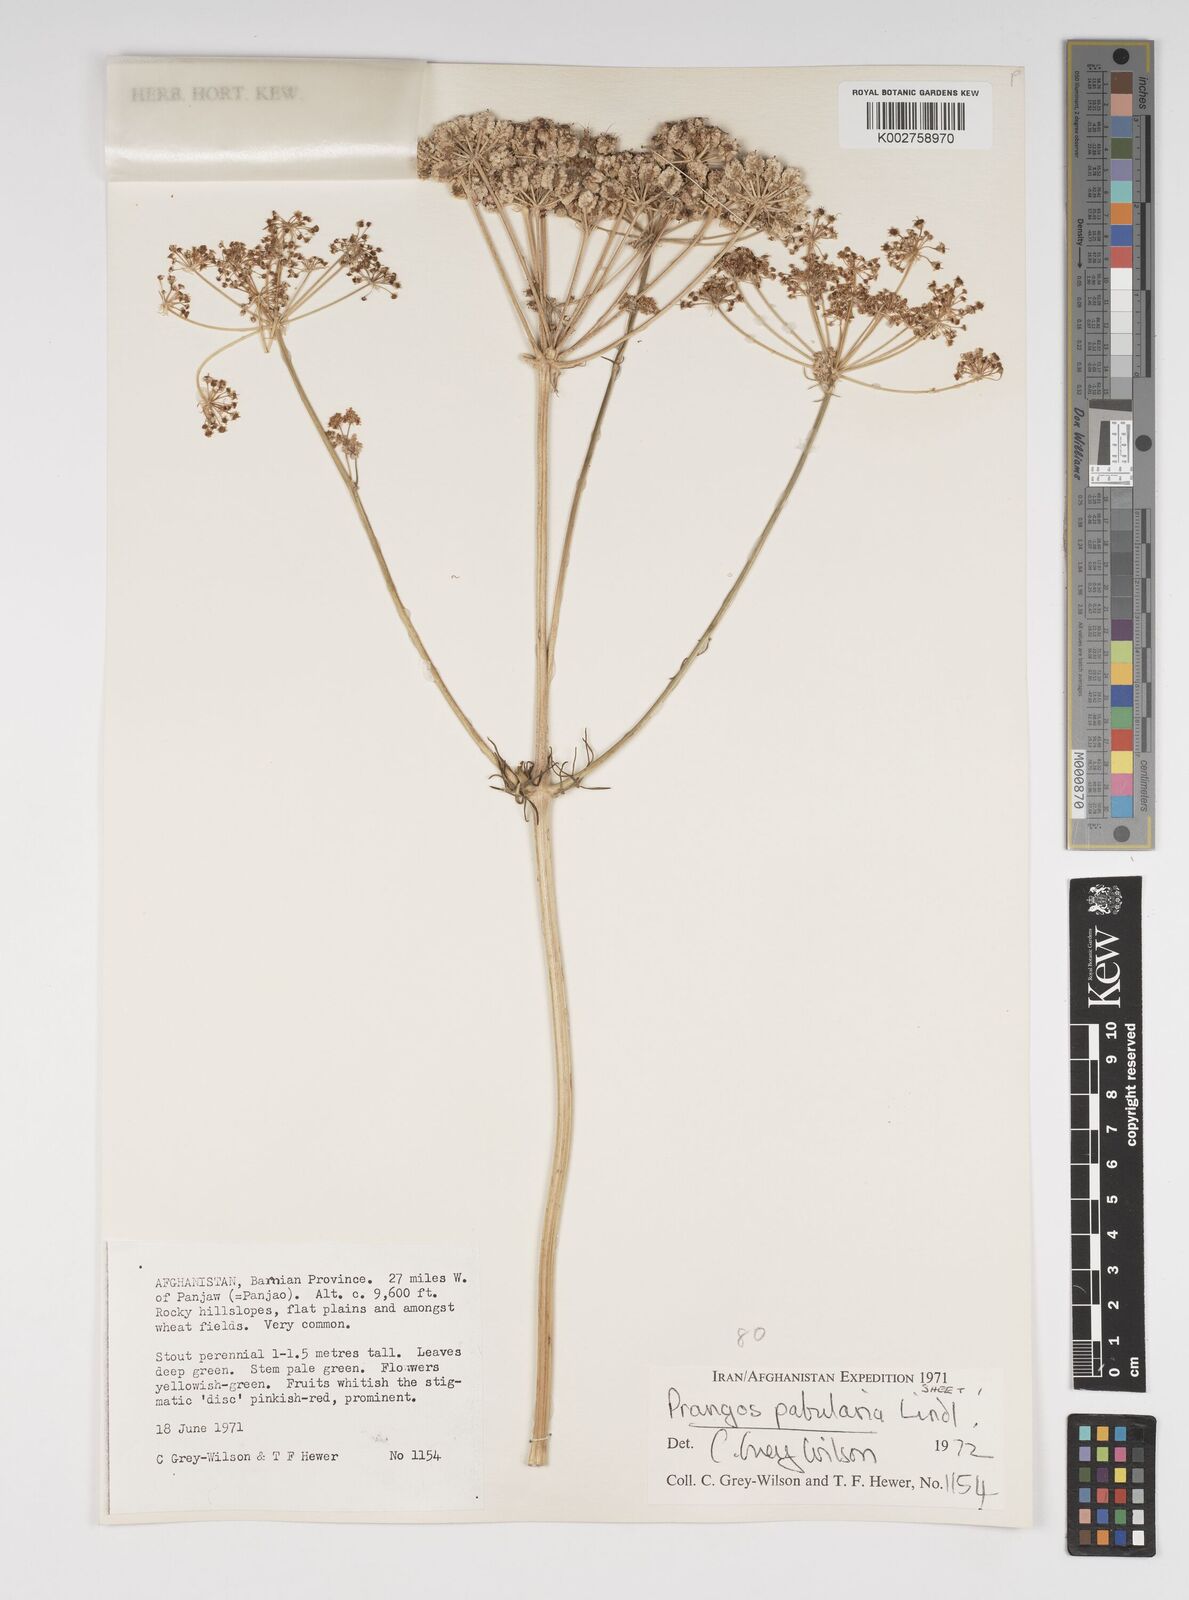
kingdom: Plantae
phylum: Tracheophyta
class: Magnoliopsida
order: Apiales
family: Apiaceae
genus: Prangos
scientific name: Prangos pabularia
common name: Yugan
